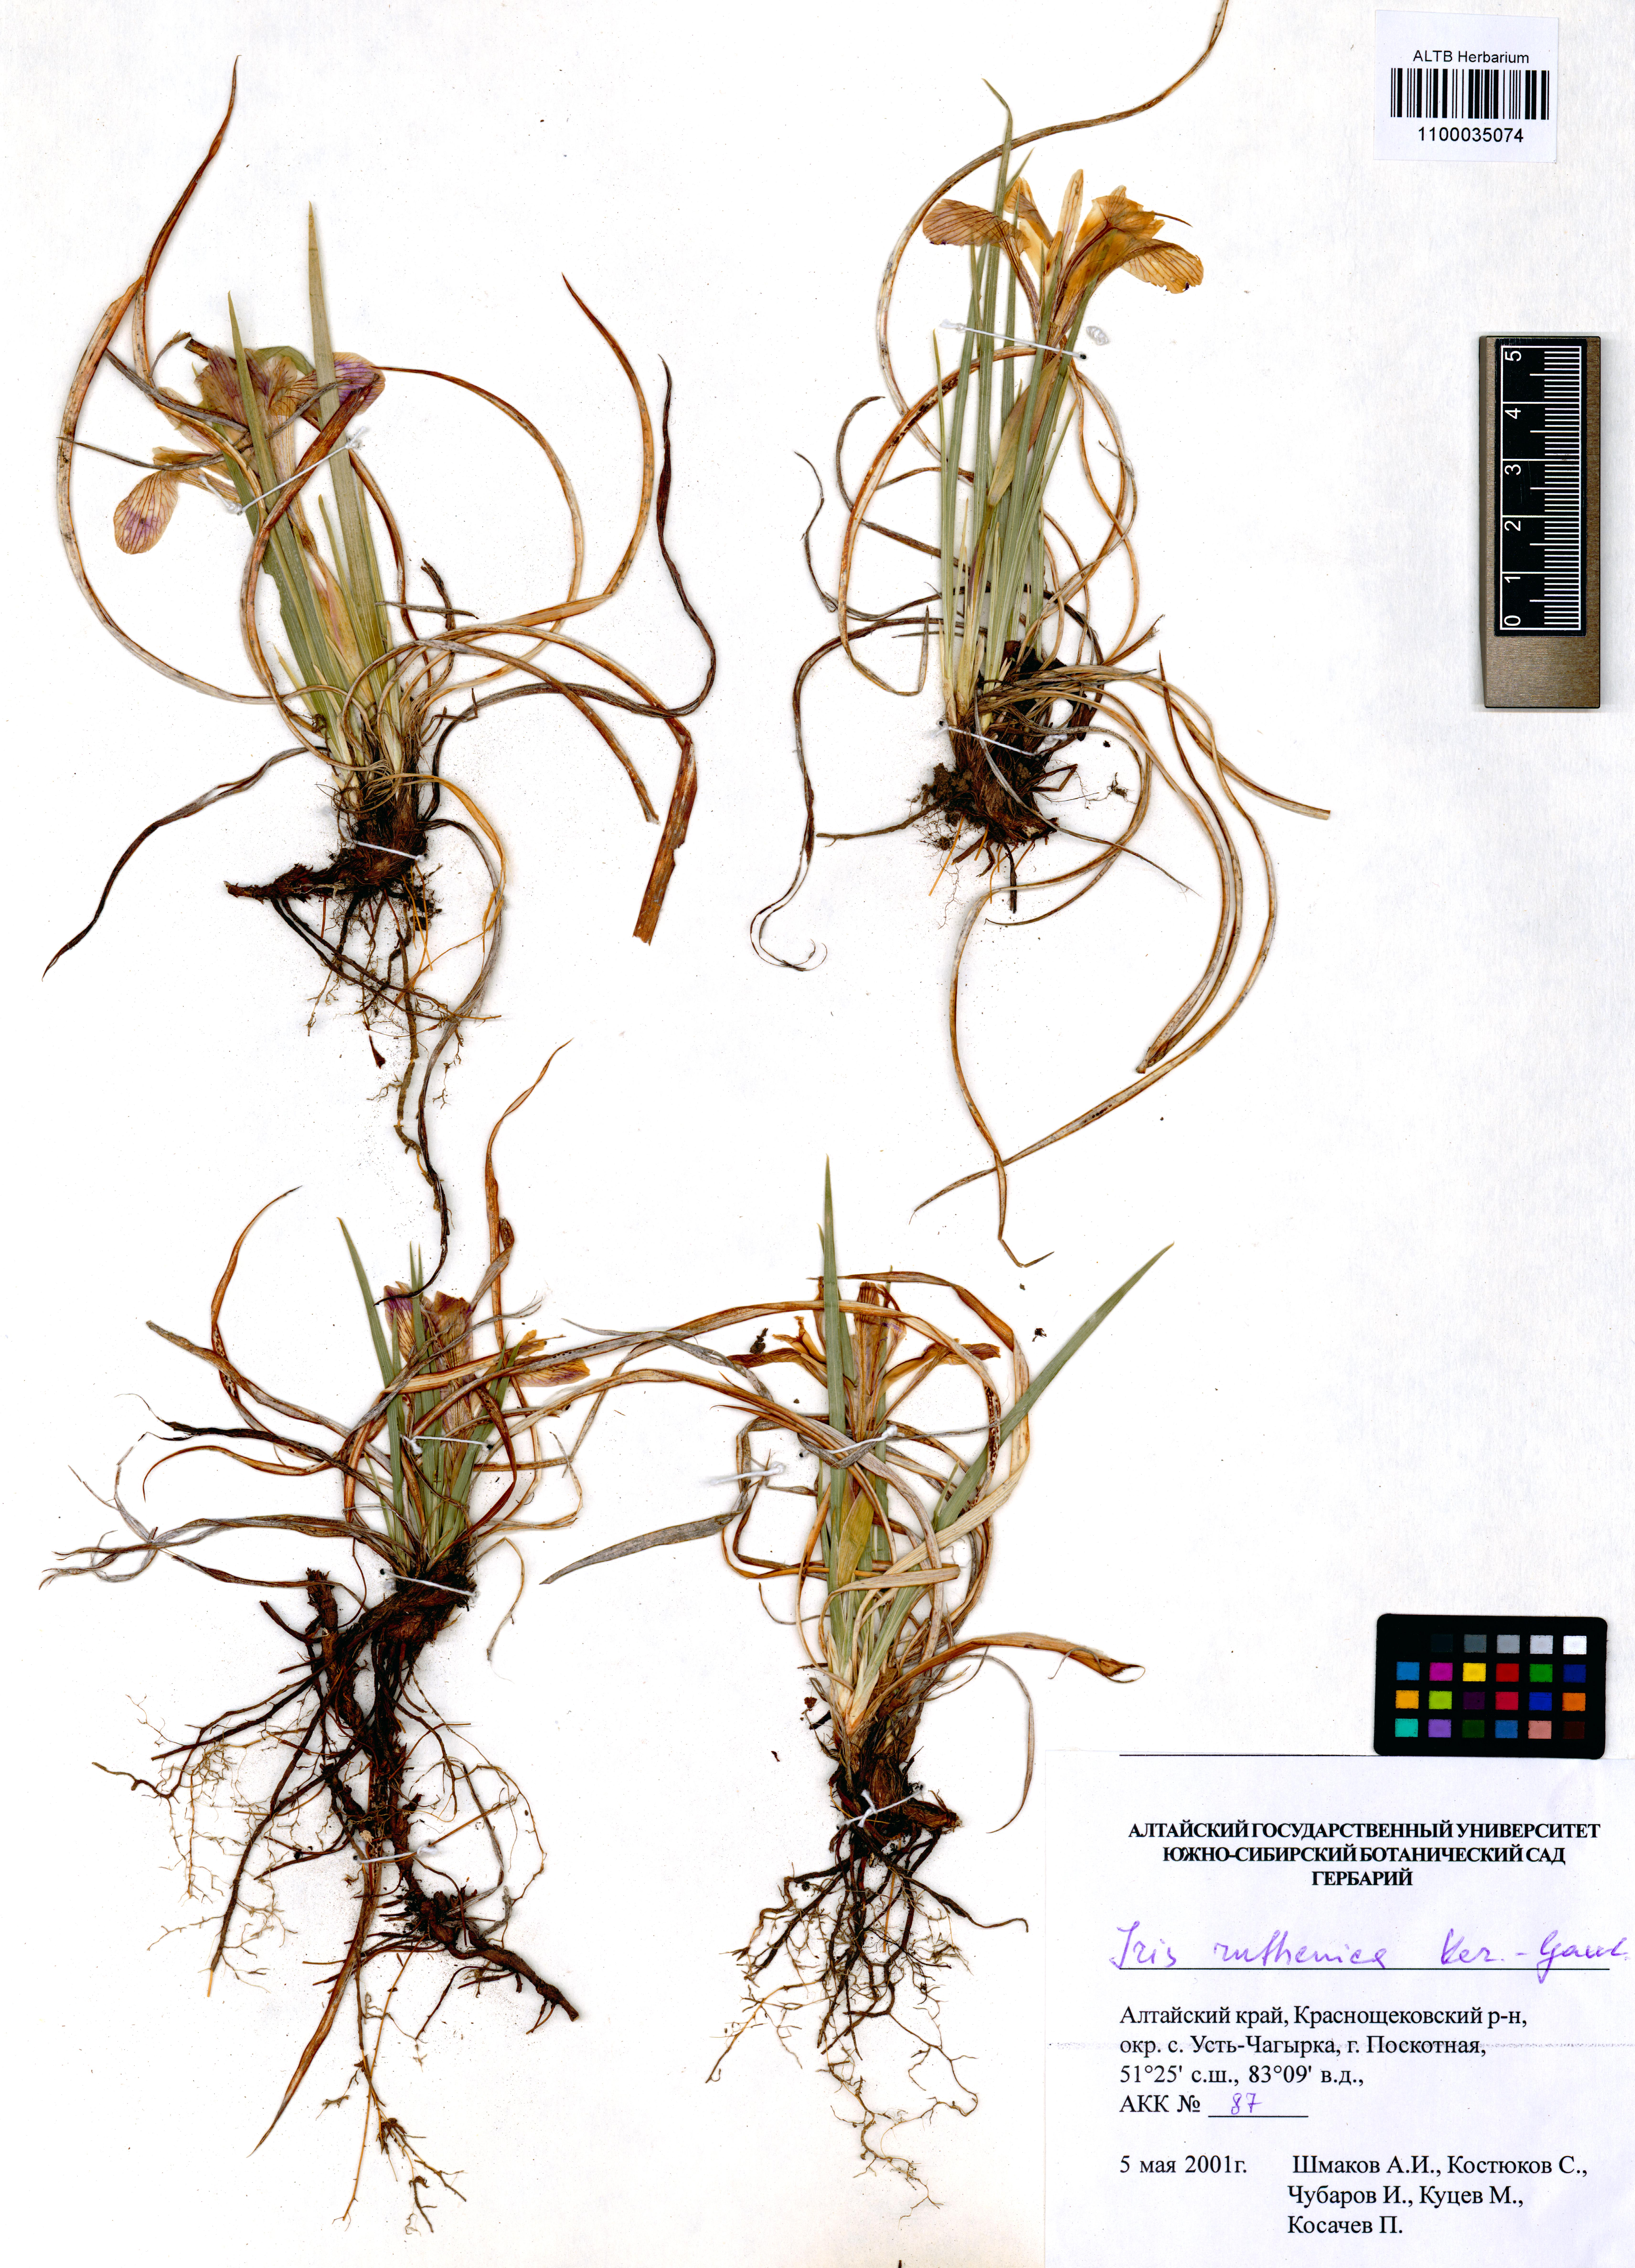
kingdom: Plantae
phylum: Tracheophyta
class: Liliopsida
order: Asparagales
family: Iridaceae
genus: Iris
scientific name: Iris ruthenica
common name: Purple-bract iris
